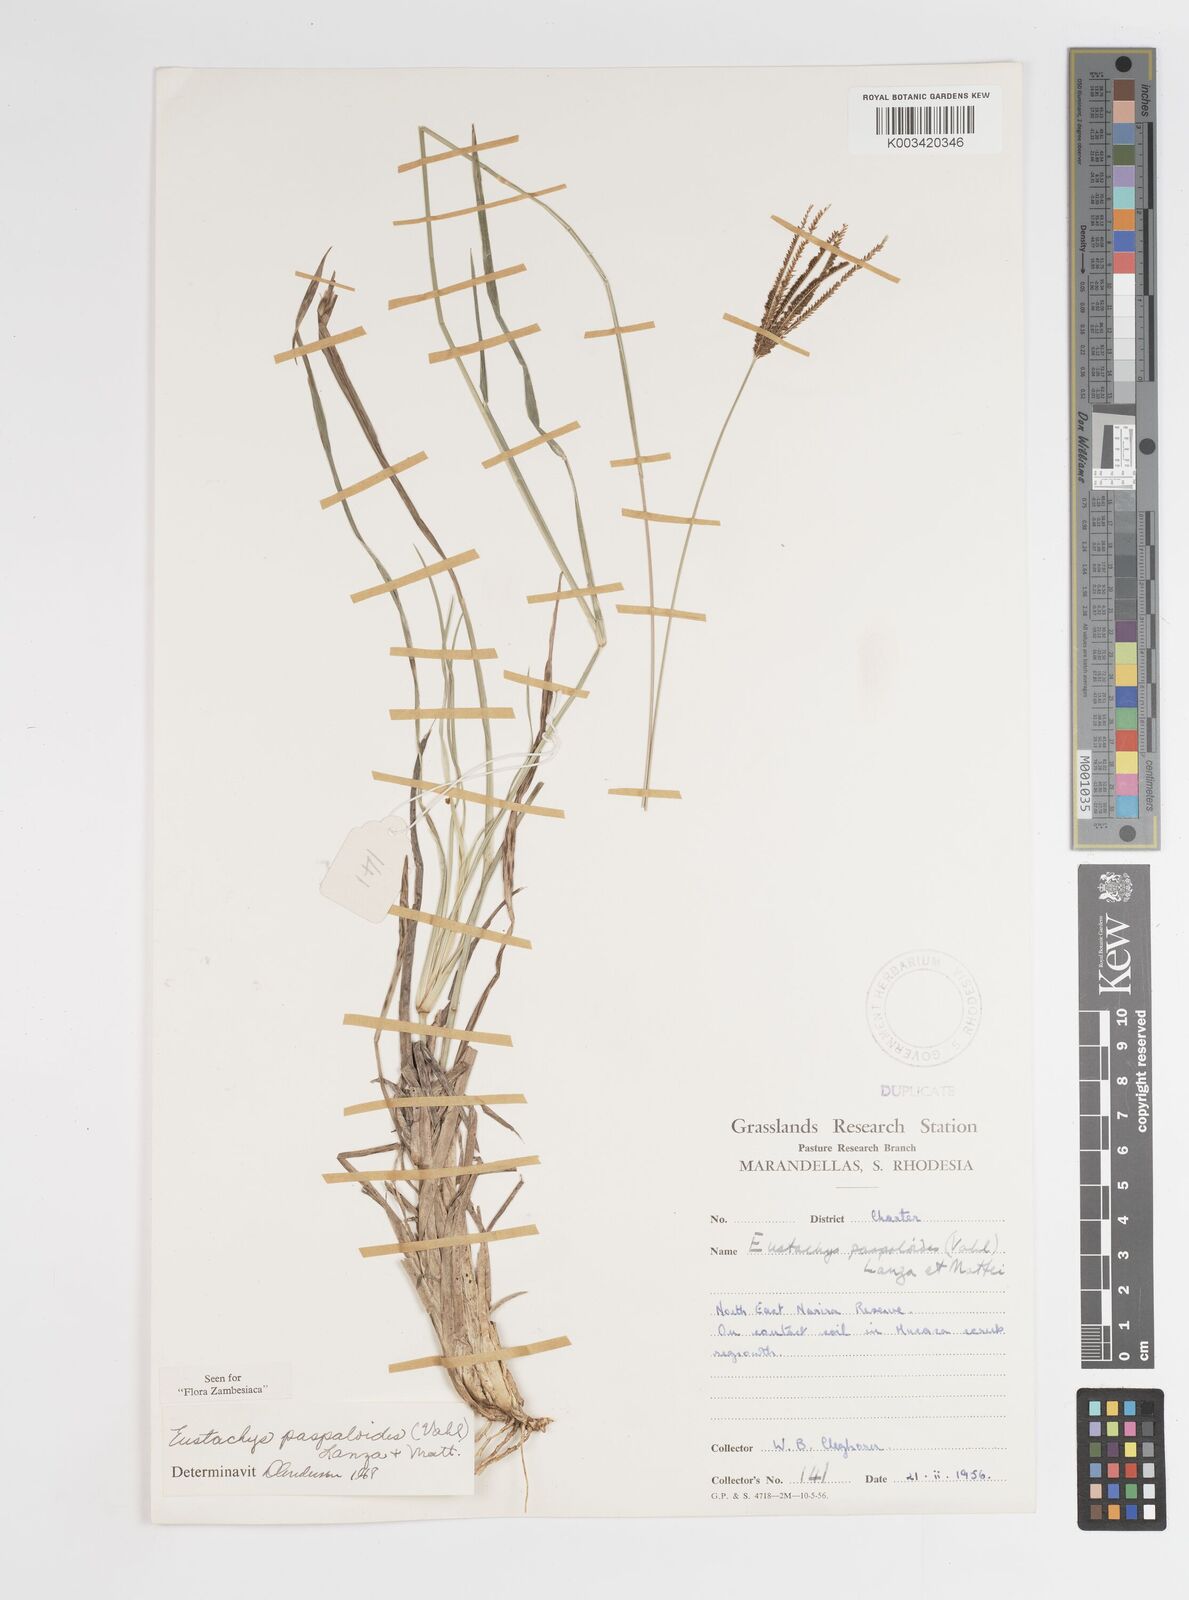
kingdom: Plantae
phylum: Tracheophyta
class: Liliopsida
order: Poales
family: Poaceae
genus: Eustachys
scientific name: Eustachys paspaloides
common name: Caribbean fingergrass
